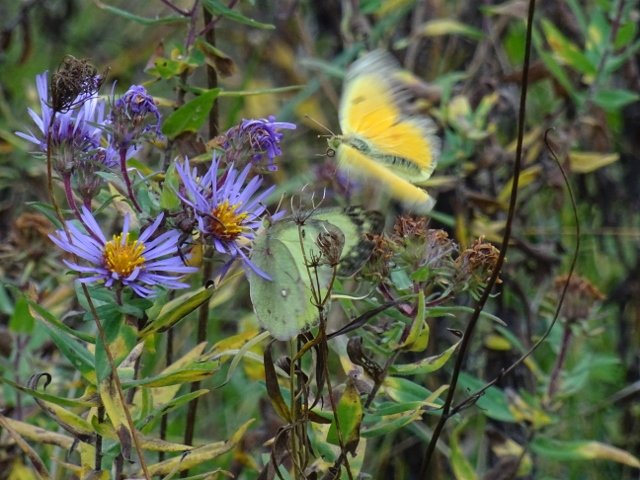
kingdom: Animalia
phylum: Arthropoda
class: Insecta
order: Lepidoptera
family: Pieridae
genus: Colias
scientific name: Colias eurytheme
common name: Orange Sulphur
